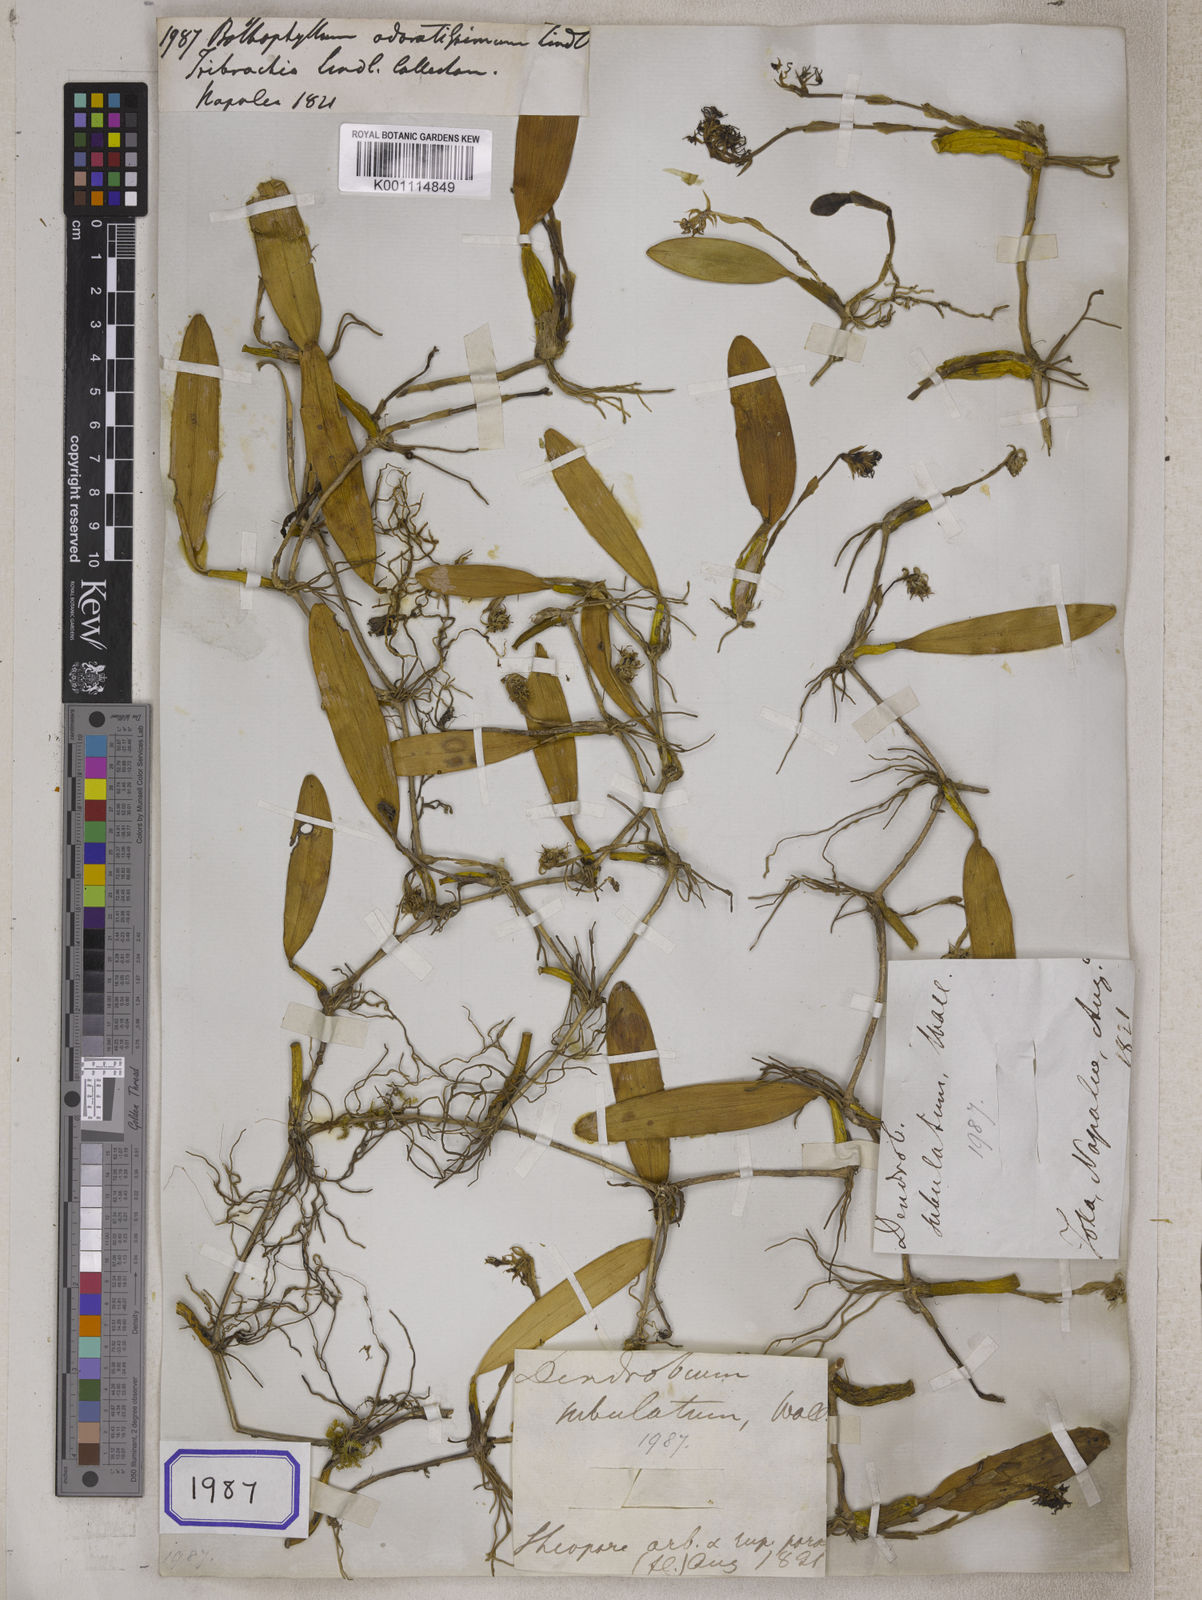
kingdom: Plantae
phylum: Tracheophyta
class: Liliopsida
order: Asparagales
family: Orchidaceae
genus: Bulbophyllum
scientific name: Bulbophyllum
